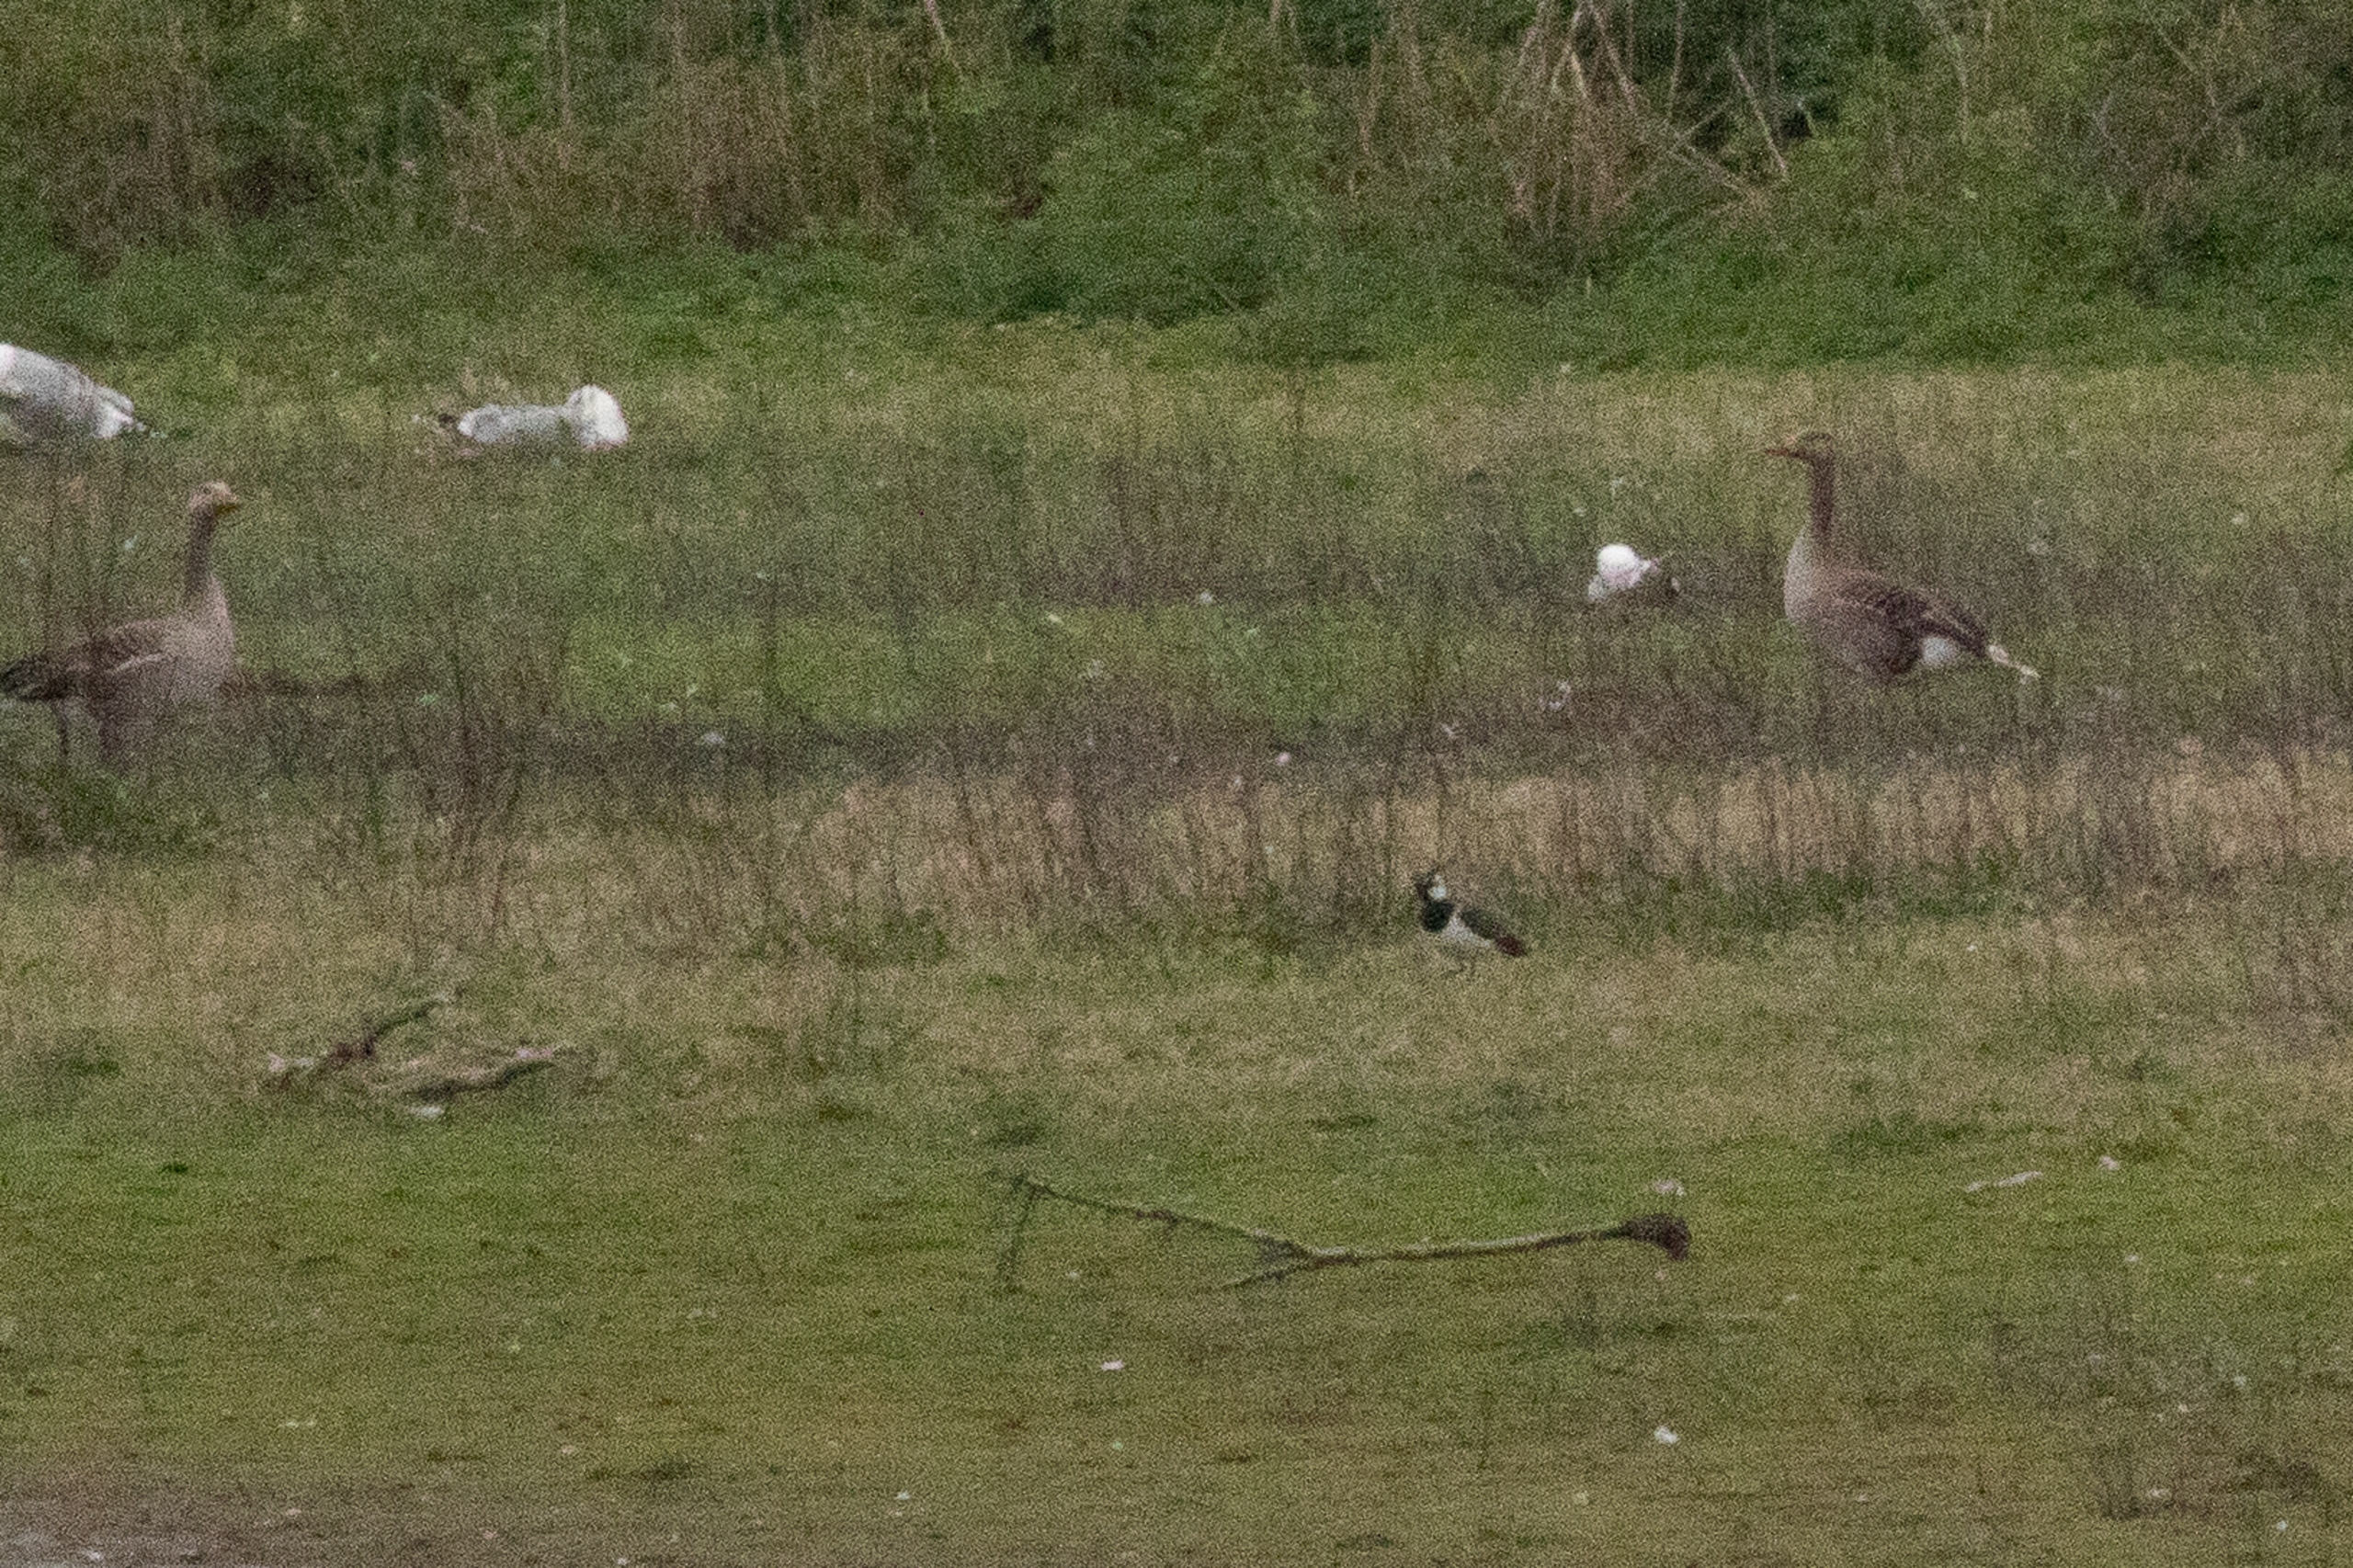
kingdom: Animalia
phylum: Chordata
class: Aves
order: Charadriiformes
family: Charadriidae
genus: Vanellus
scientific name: Vanellus vanellus
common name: Vibe
